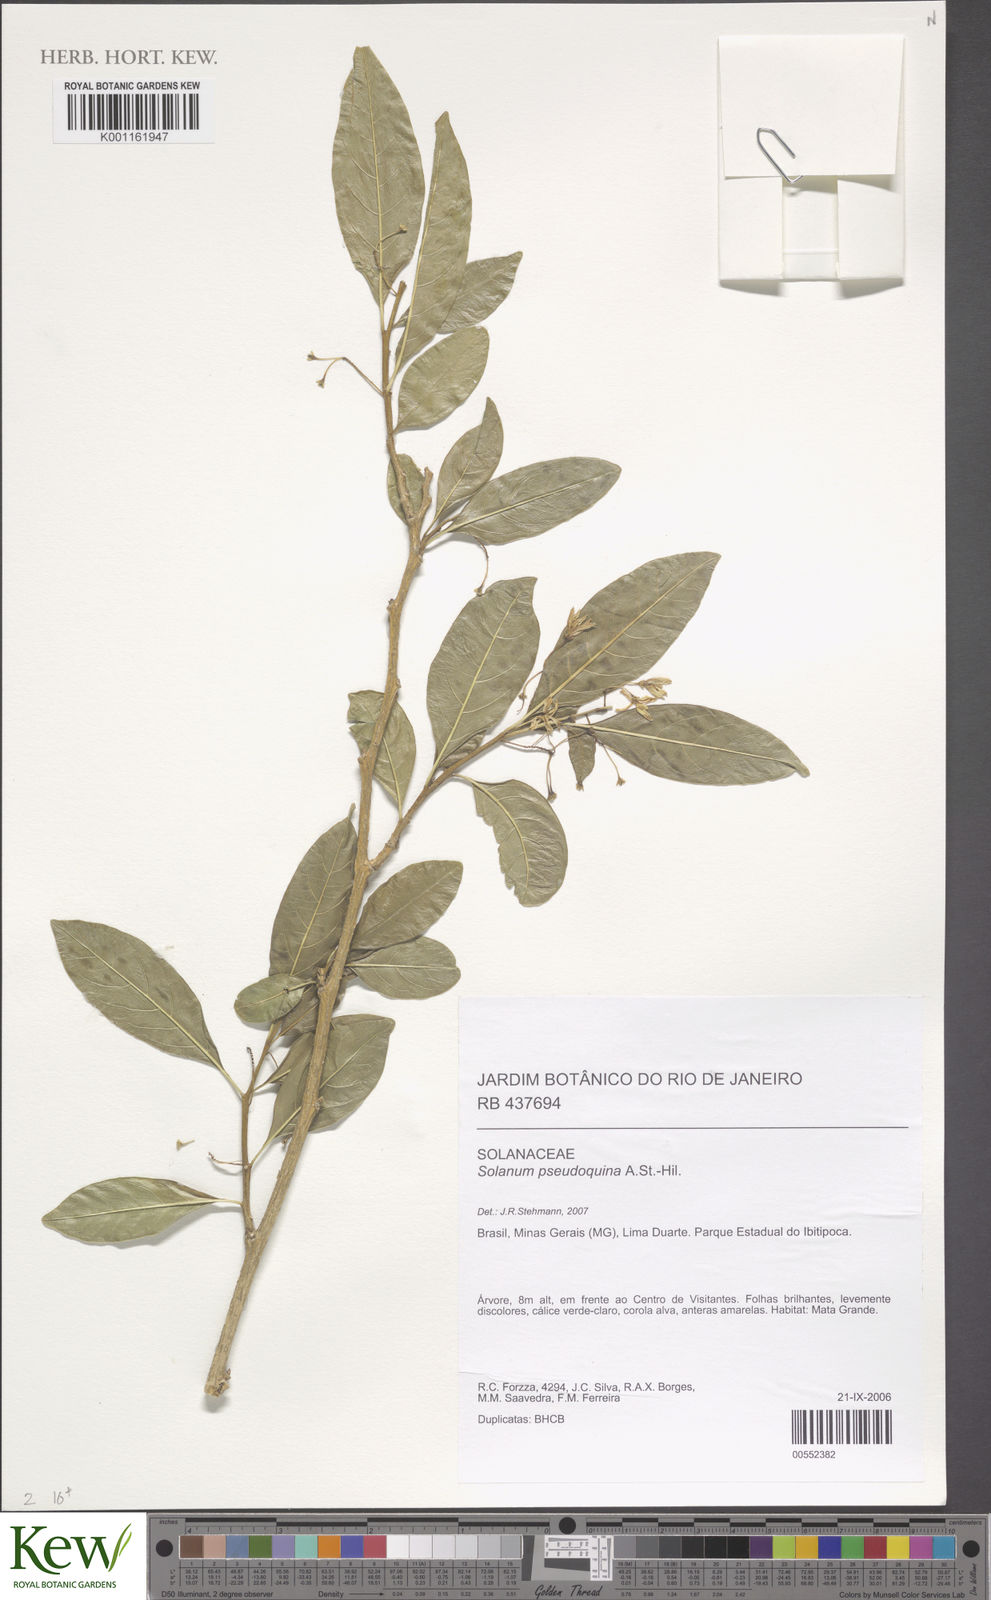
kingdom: Plantae
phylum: Tracheophyta
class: Magnoliopsida
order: Solanales
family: Solanaceae
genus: Solanum
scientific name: Solanum pseudoquina
